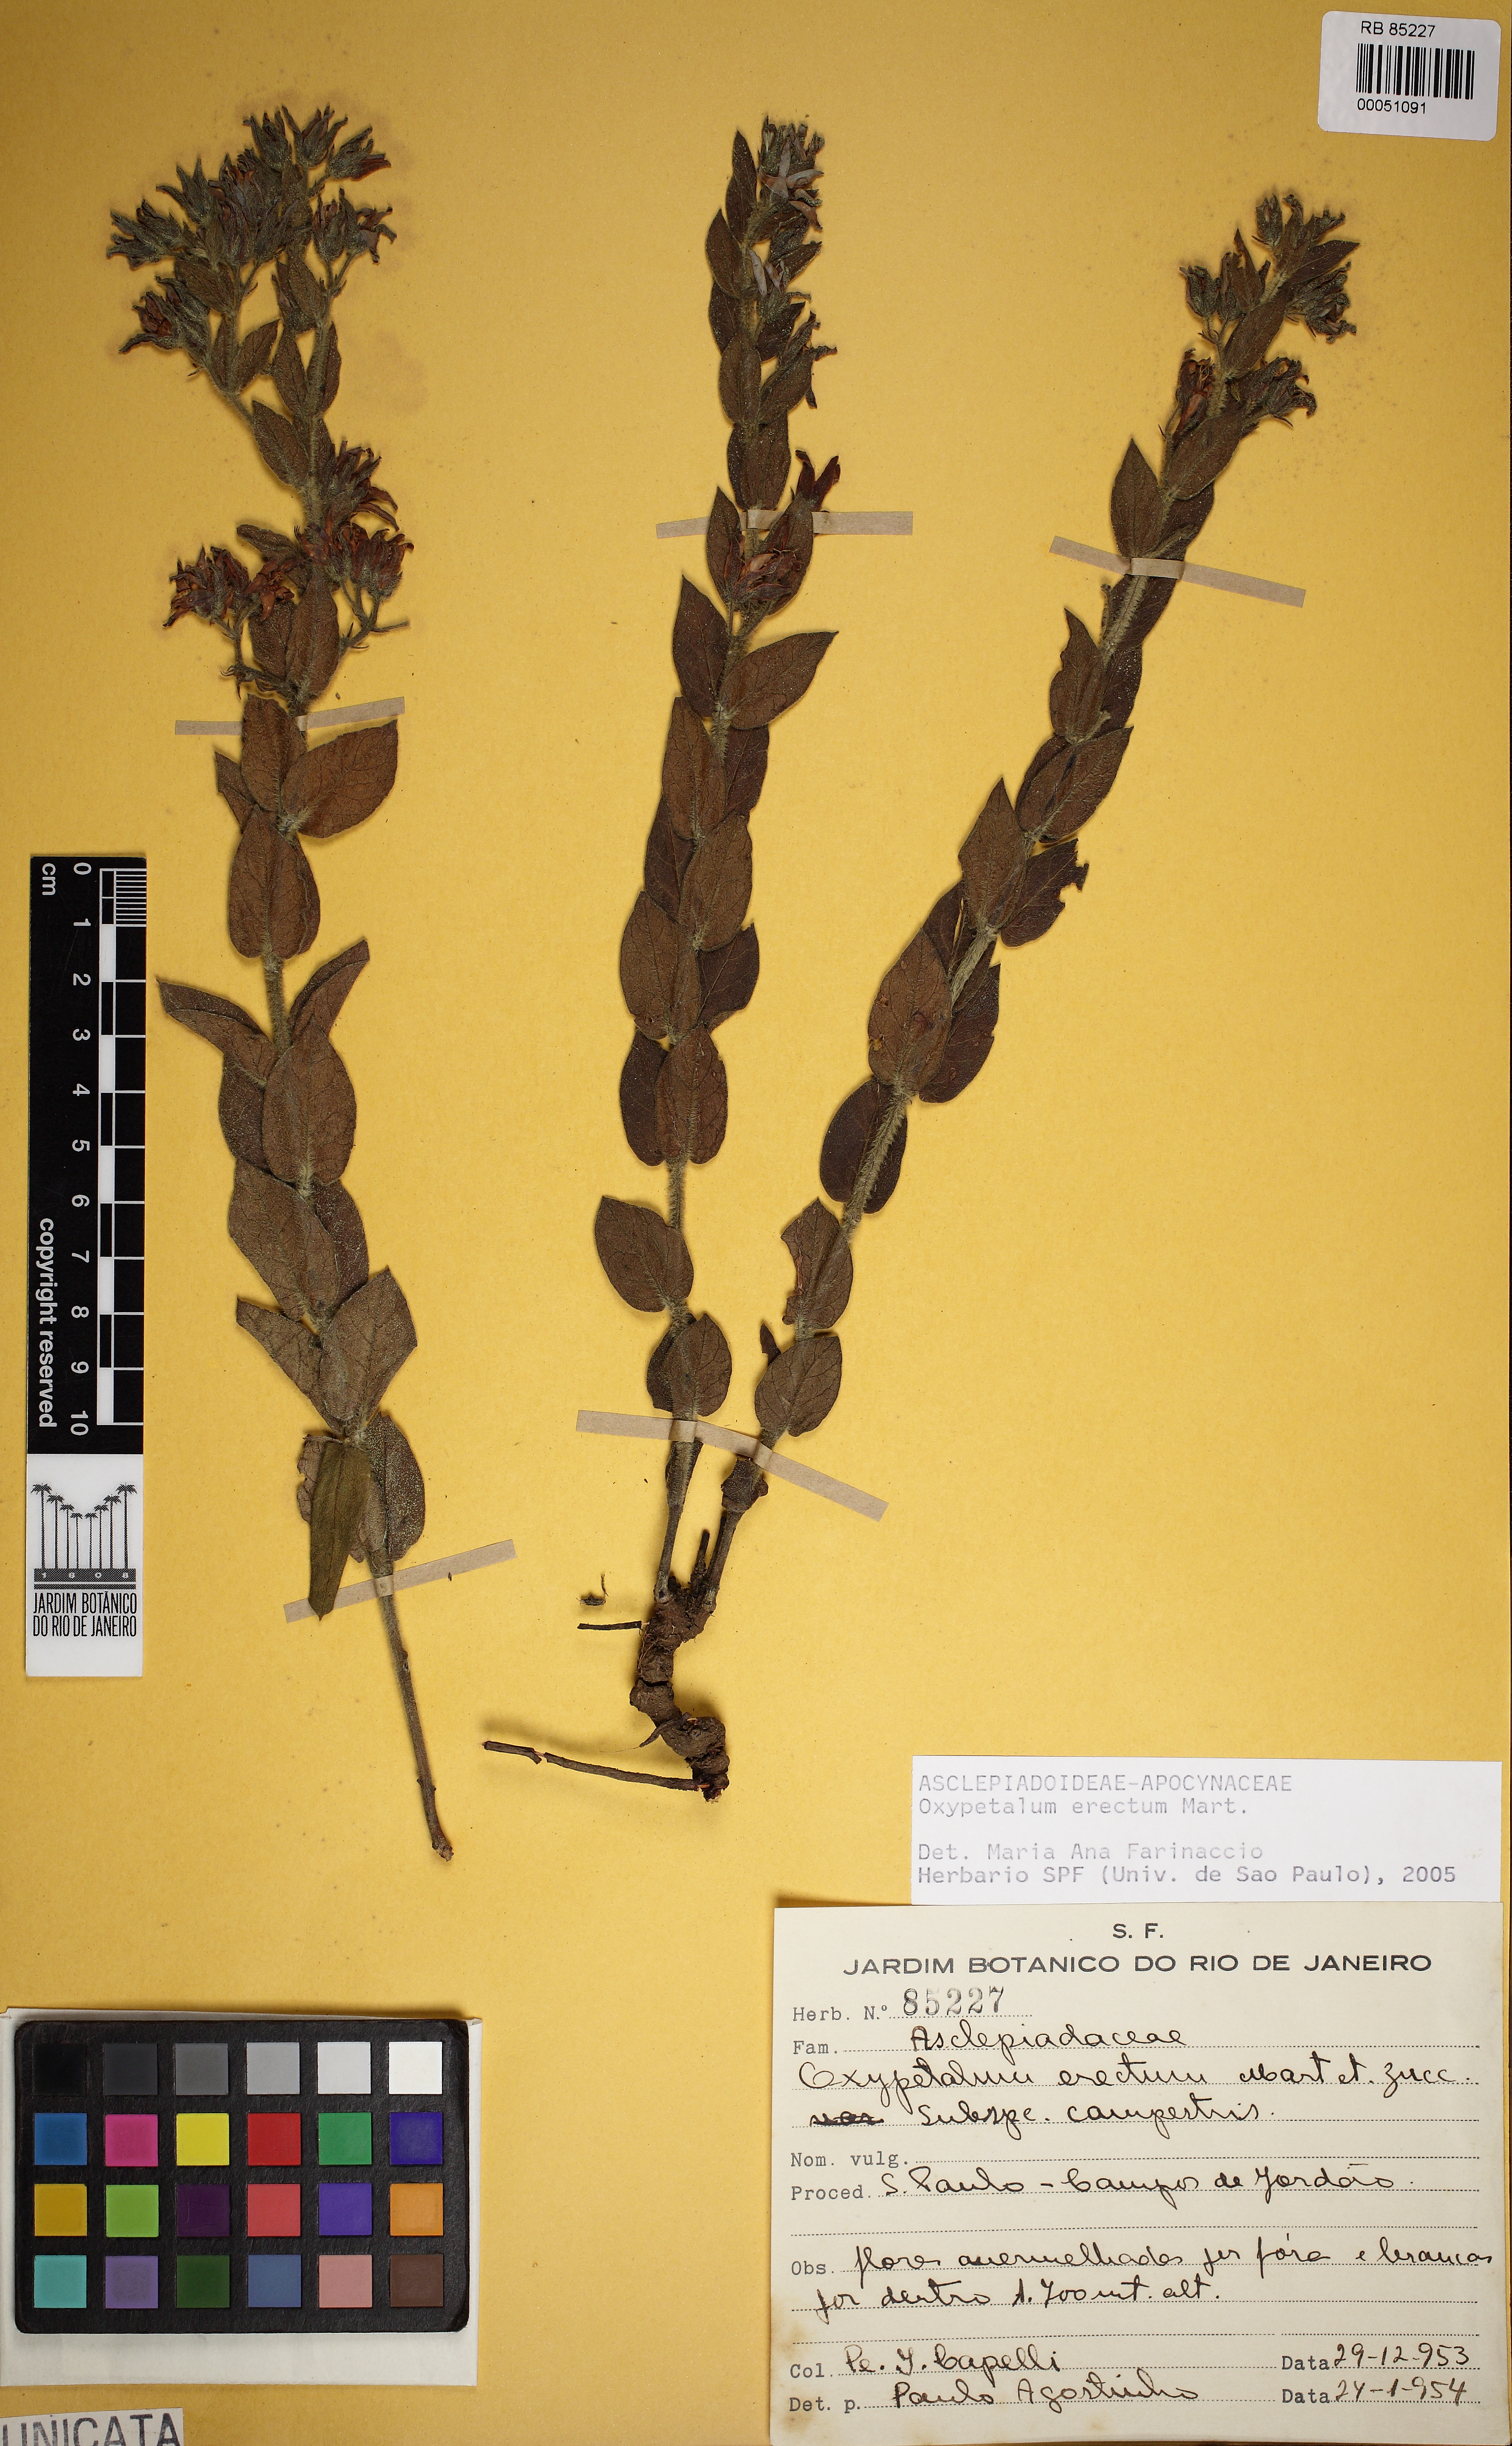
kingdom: Plantae
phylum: Tracheophyta
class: Magnoliopsida
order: Gentianales
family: Apocynaceae
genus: Oxypetalum
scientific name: Oxypetalum erectum
